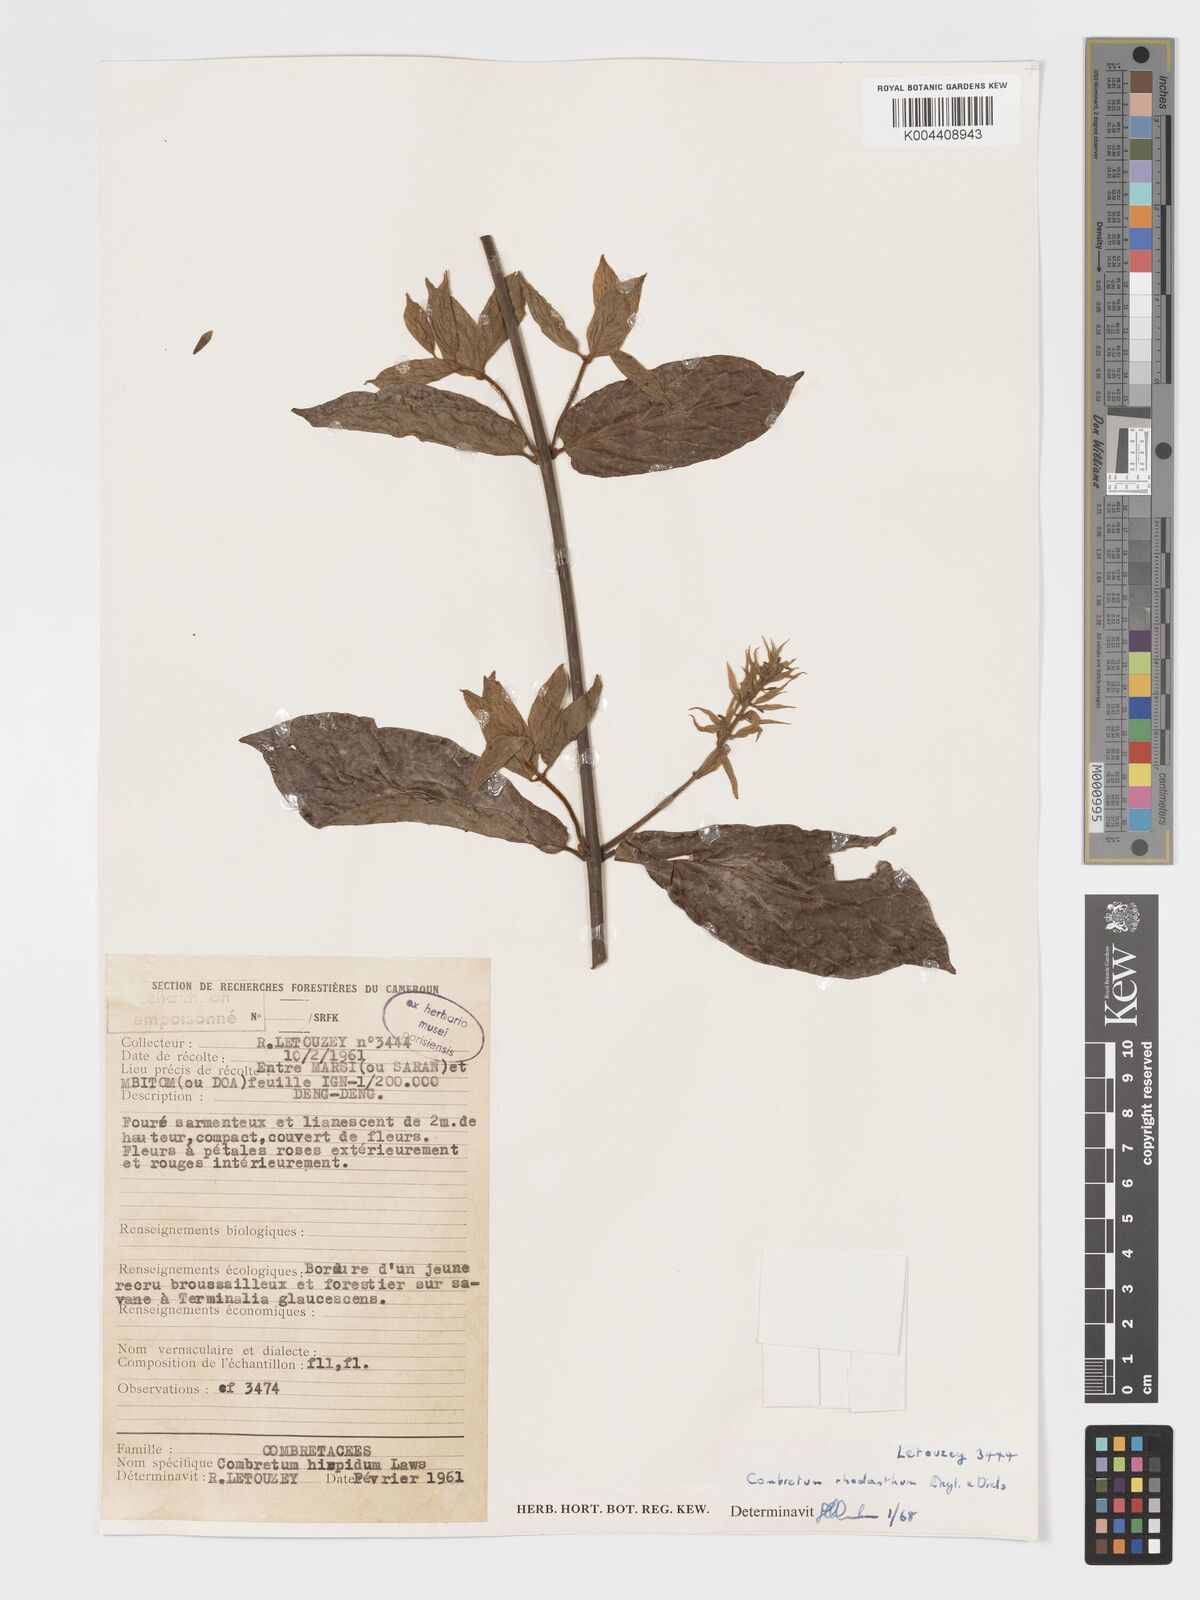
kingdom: Plantae
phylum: Tracheophyta
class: Magnoliopsida
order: Myrtales
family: Combretaceae
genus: Combretum
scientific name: Combretum comosum
